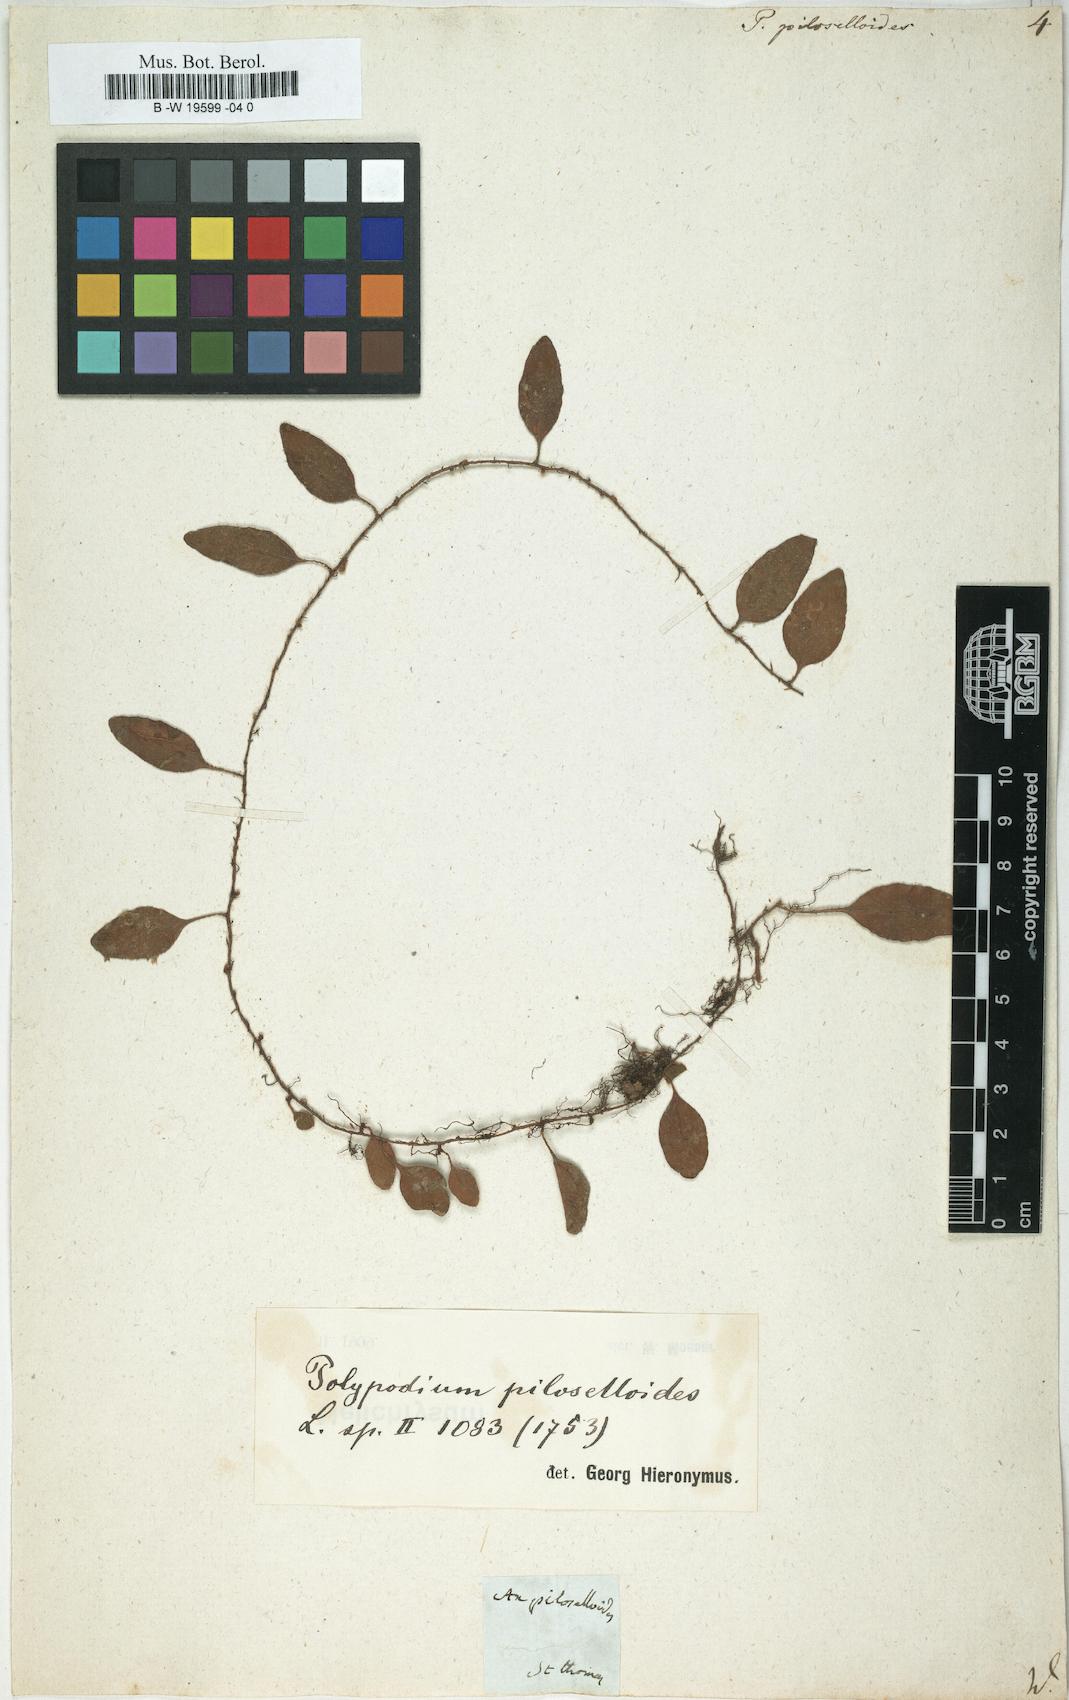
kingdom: Plantae
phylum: Tracheophyta
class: Polypodiopsida
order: Polypodiales
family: Polypodiaceae
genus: Polypodium
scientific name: Polypodium piloselloides
